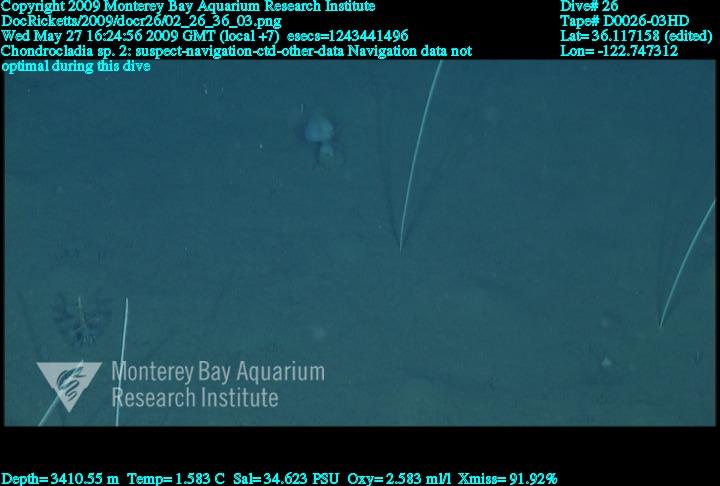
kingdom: Animalia
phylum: Porifera
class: Demospongiae
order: Poecilosclerida
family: Cladorhizidae
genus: Chondrocladia
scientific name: Chondrocladia
